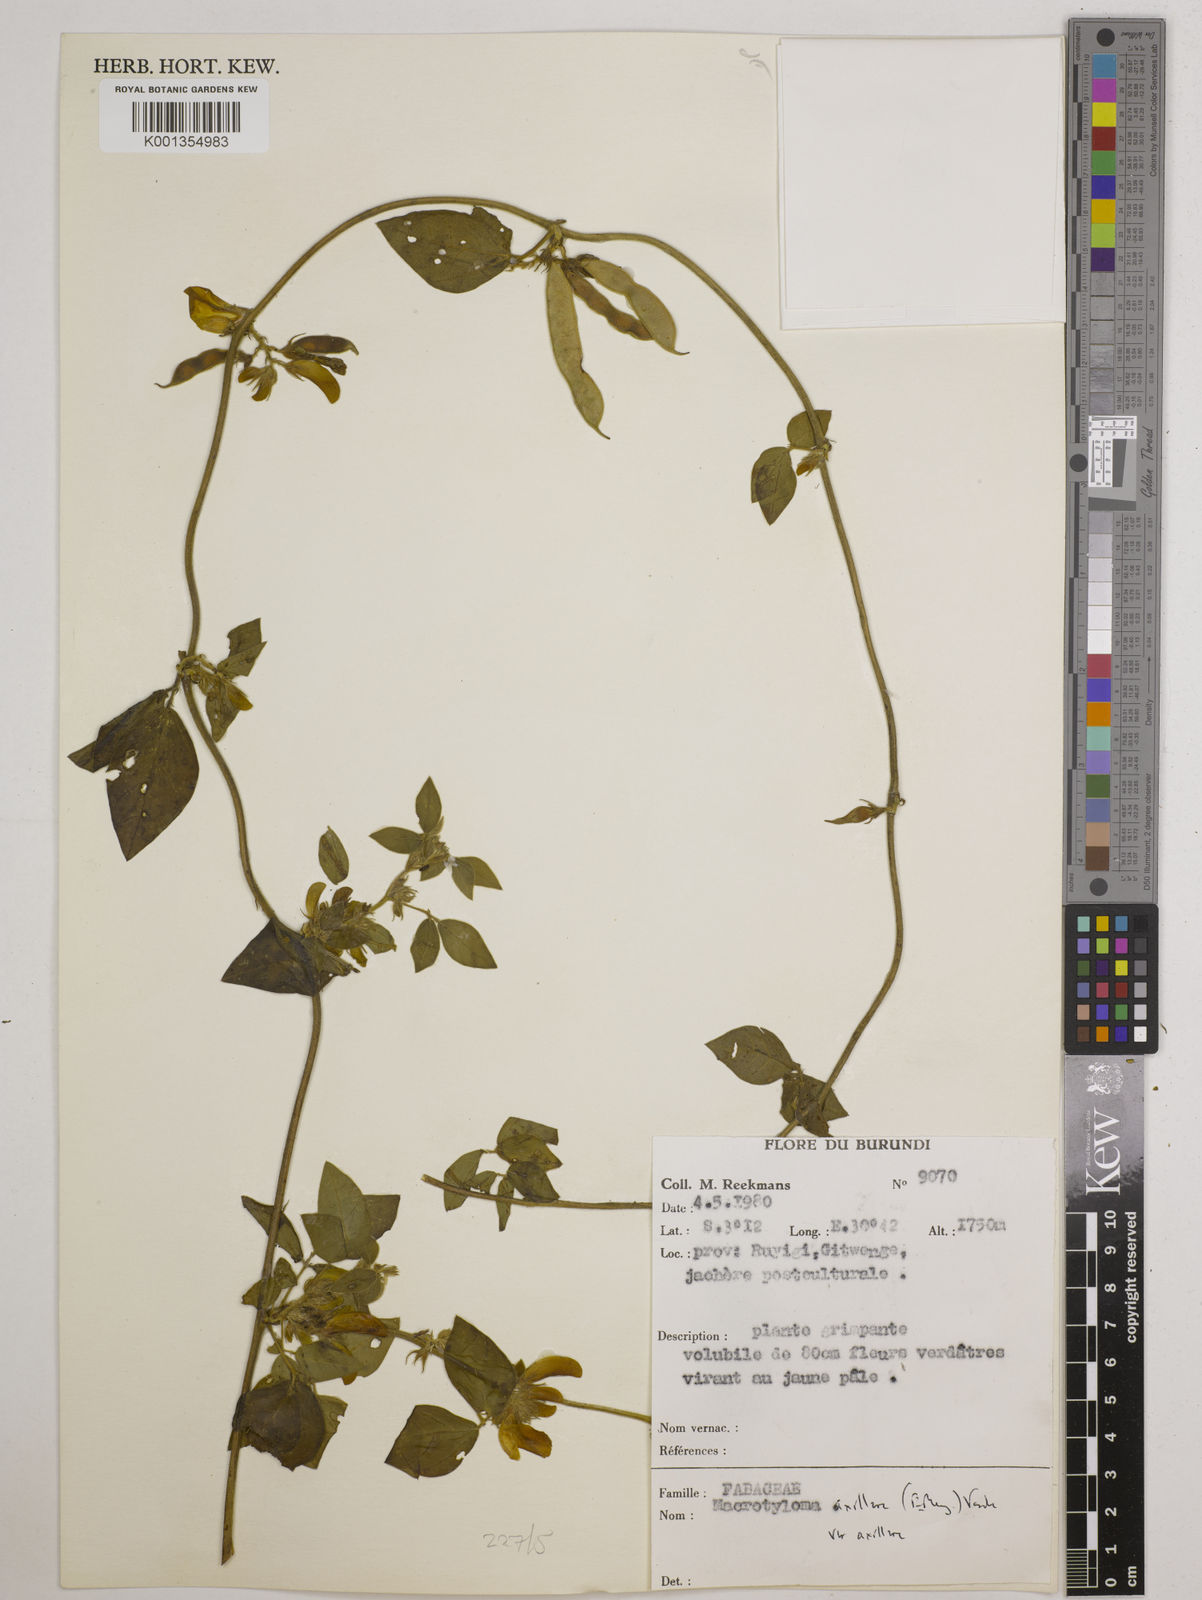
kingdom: Plantae
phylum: Tracheophyta
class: Magnoliopsida
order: Fabales
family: Fabaceae
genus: Macrotyloma
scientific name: Macrotyloma
